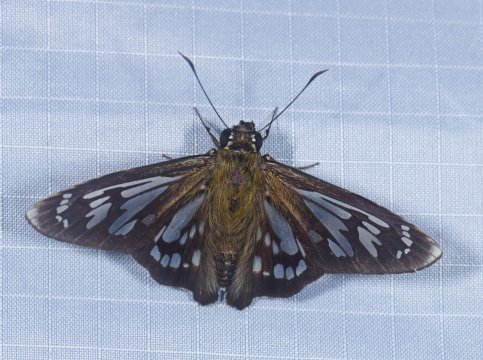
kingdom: Animalia
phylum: Arthropoda
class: Insecta
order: Lepidoptera
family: Hesperiidae
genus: Phanus
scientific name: Phanus ecitonorum
